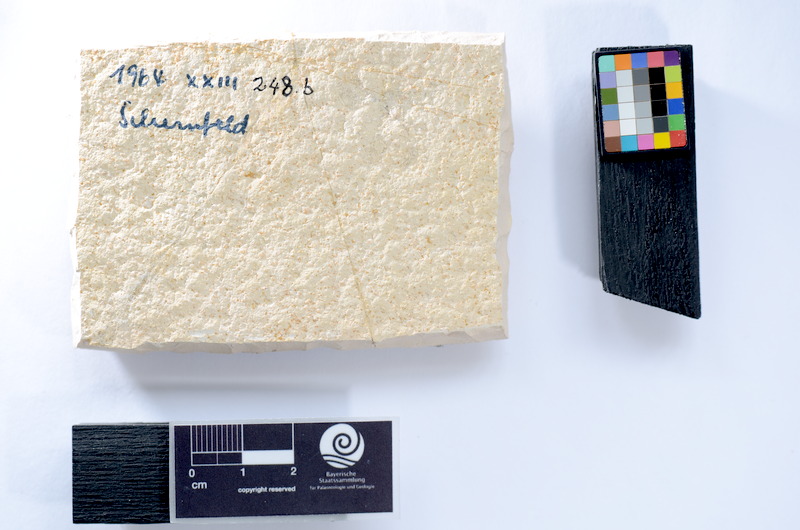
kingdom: Animalia
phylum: Chordata
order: Salmoniformes
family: Orthogonikleithridae
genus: Leptolepides
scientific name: Leptolepides
